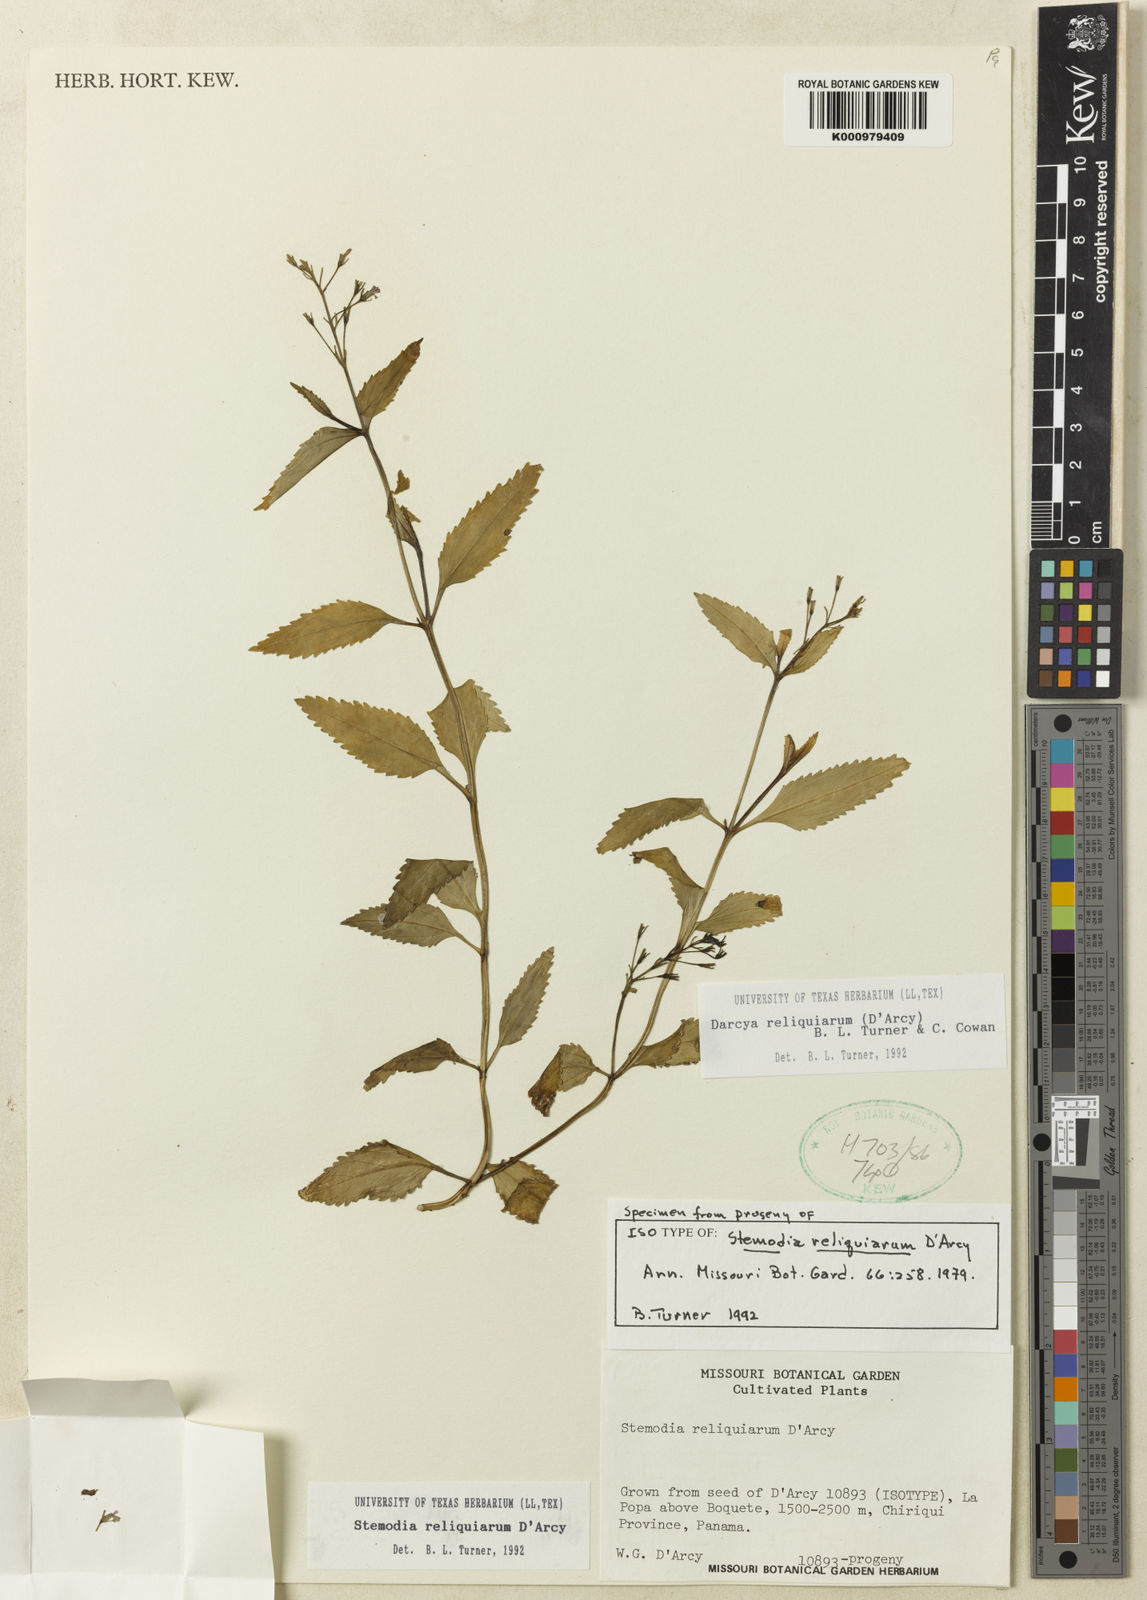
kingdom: Plantae
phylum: Tracheophyta
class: Magnoliopsida
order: Lamiales
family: Plantaginaceae
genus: Darcya
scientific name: Darcya reliquiarum
